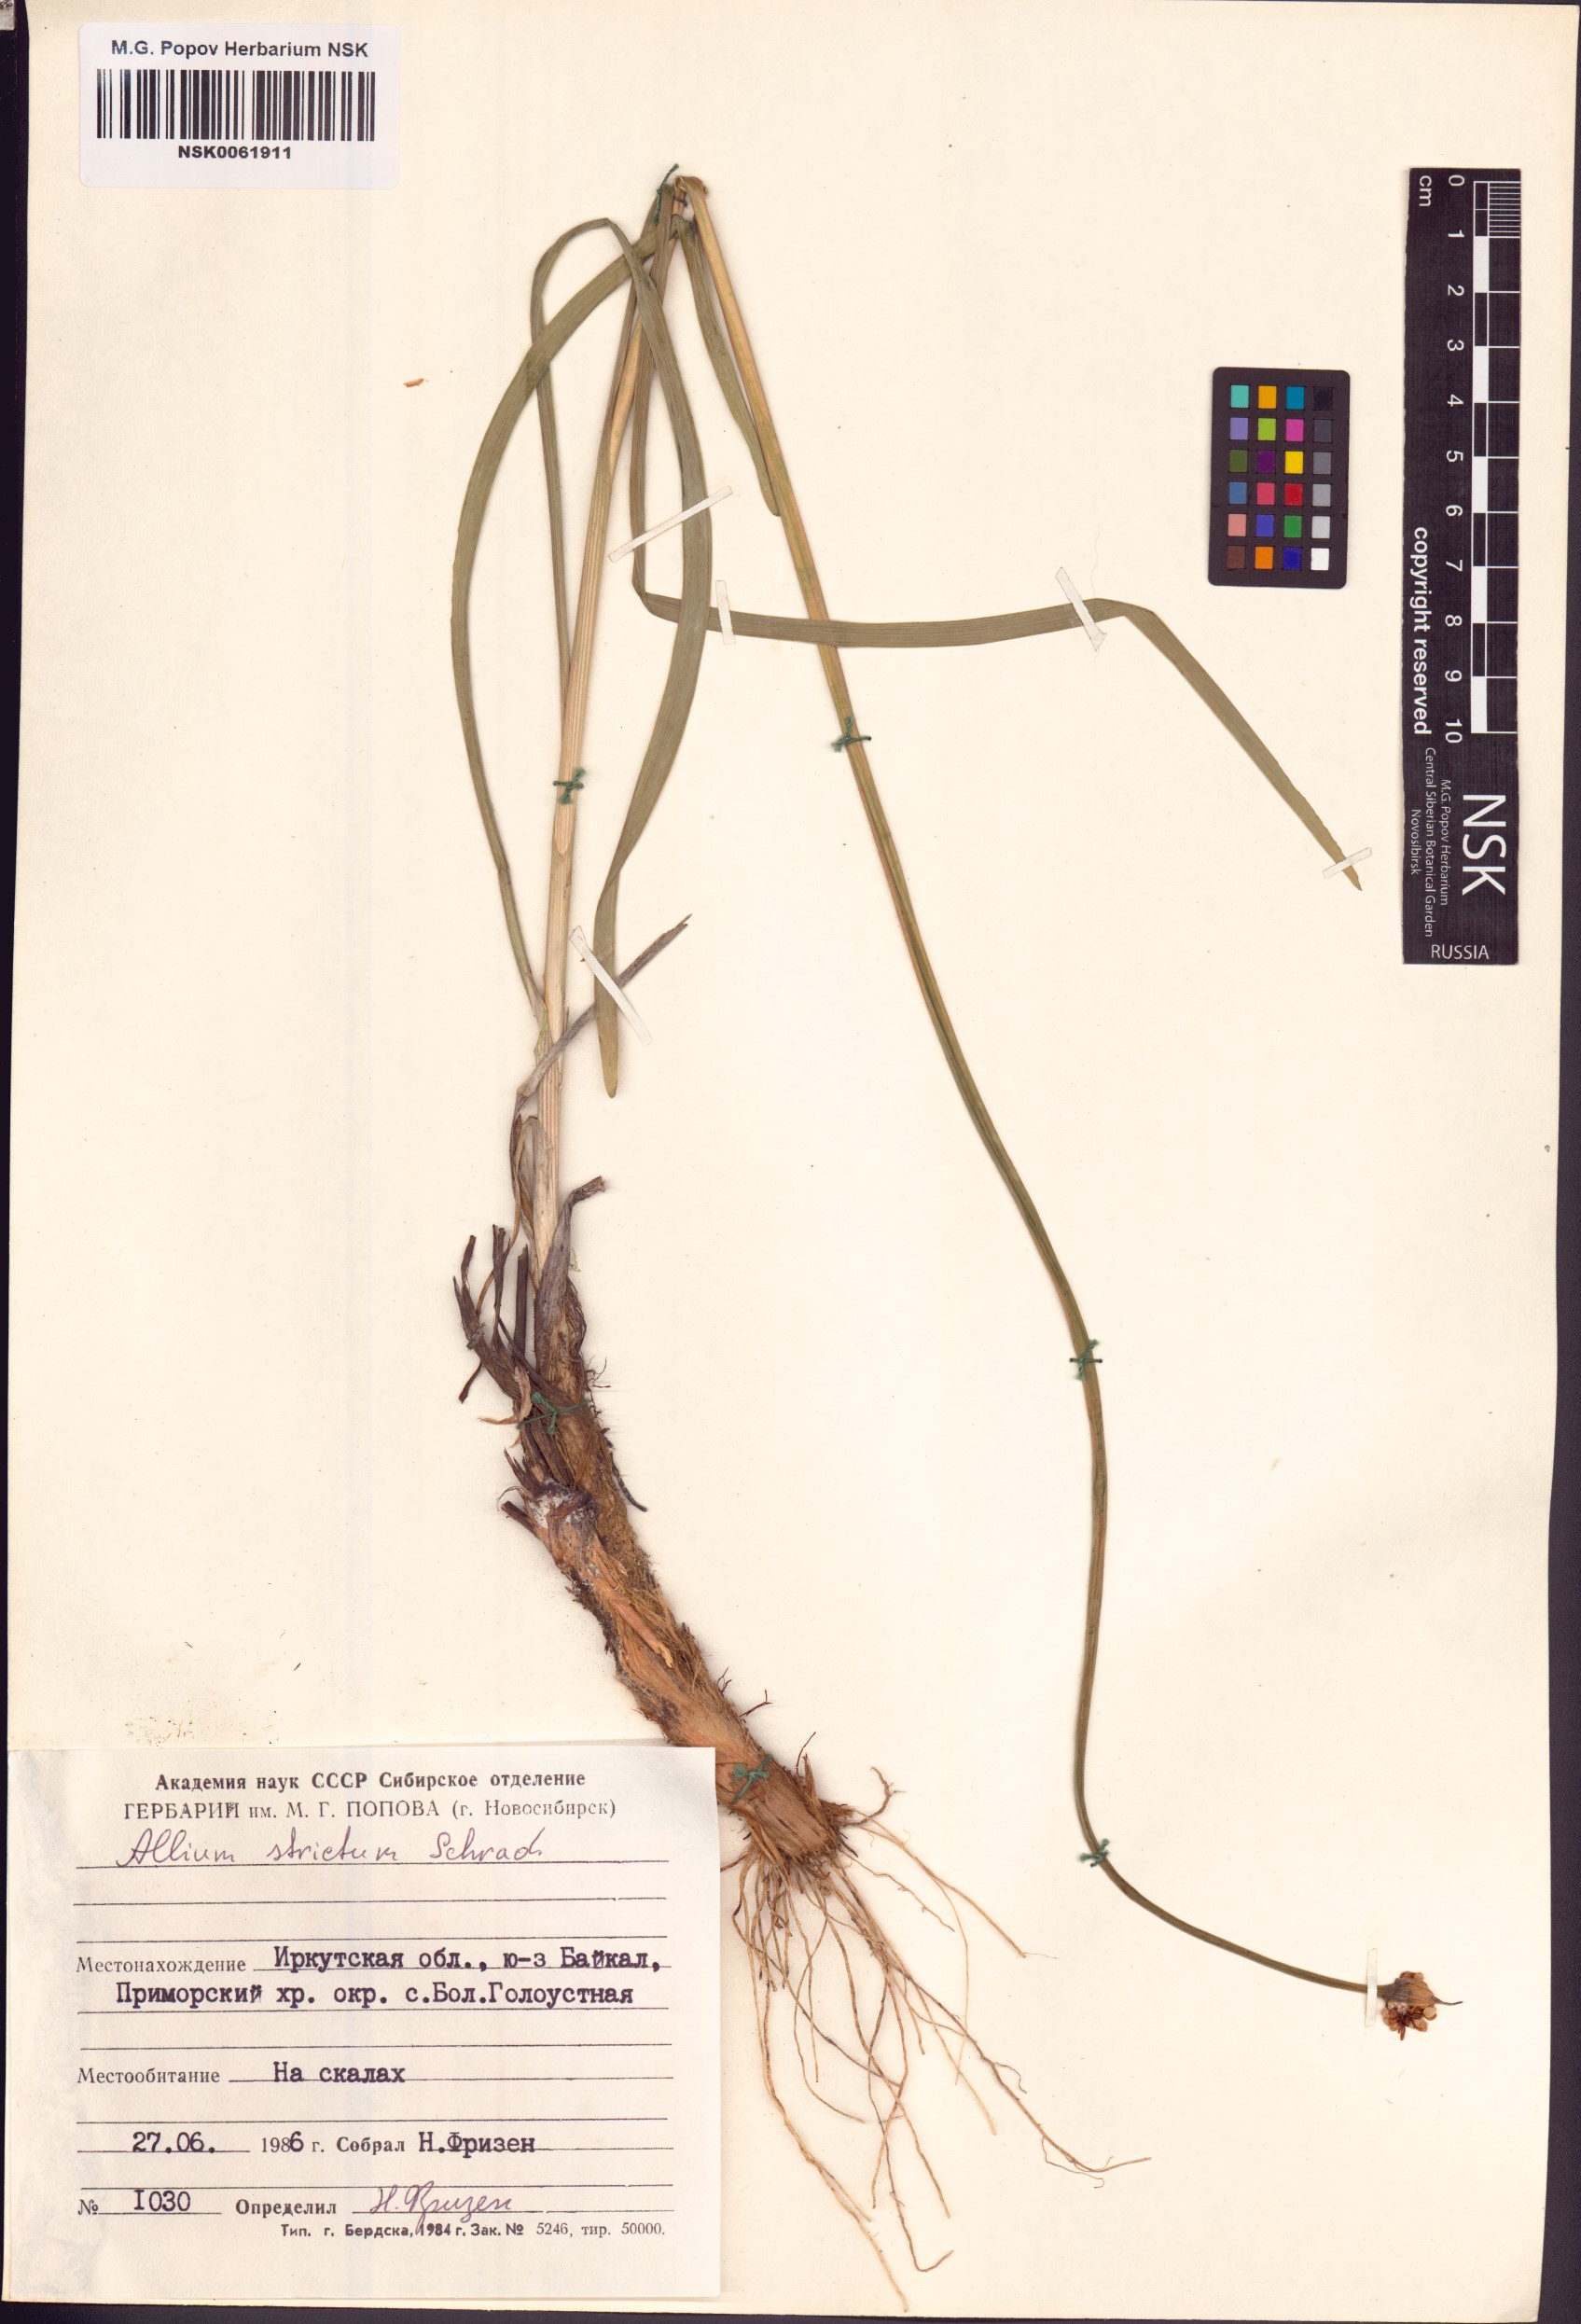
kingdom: Plantae
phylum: Tracheophyta
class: Liliopsida
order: Asparagales
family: Amaryllidaceae
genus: Allium
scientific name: Allium strictum
